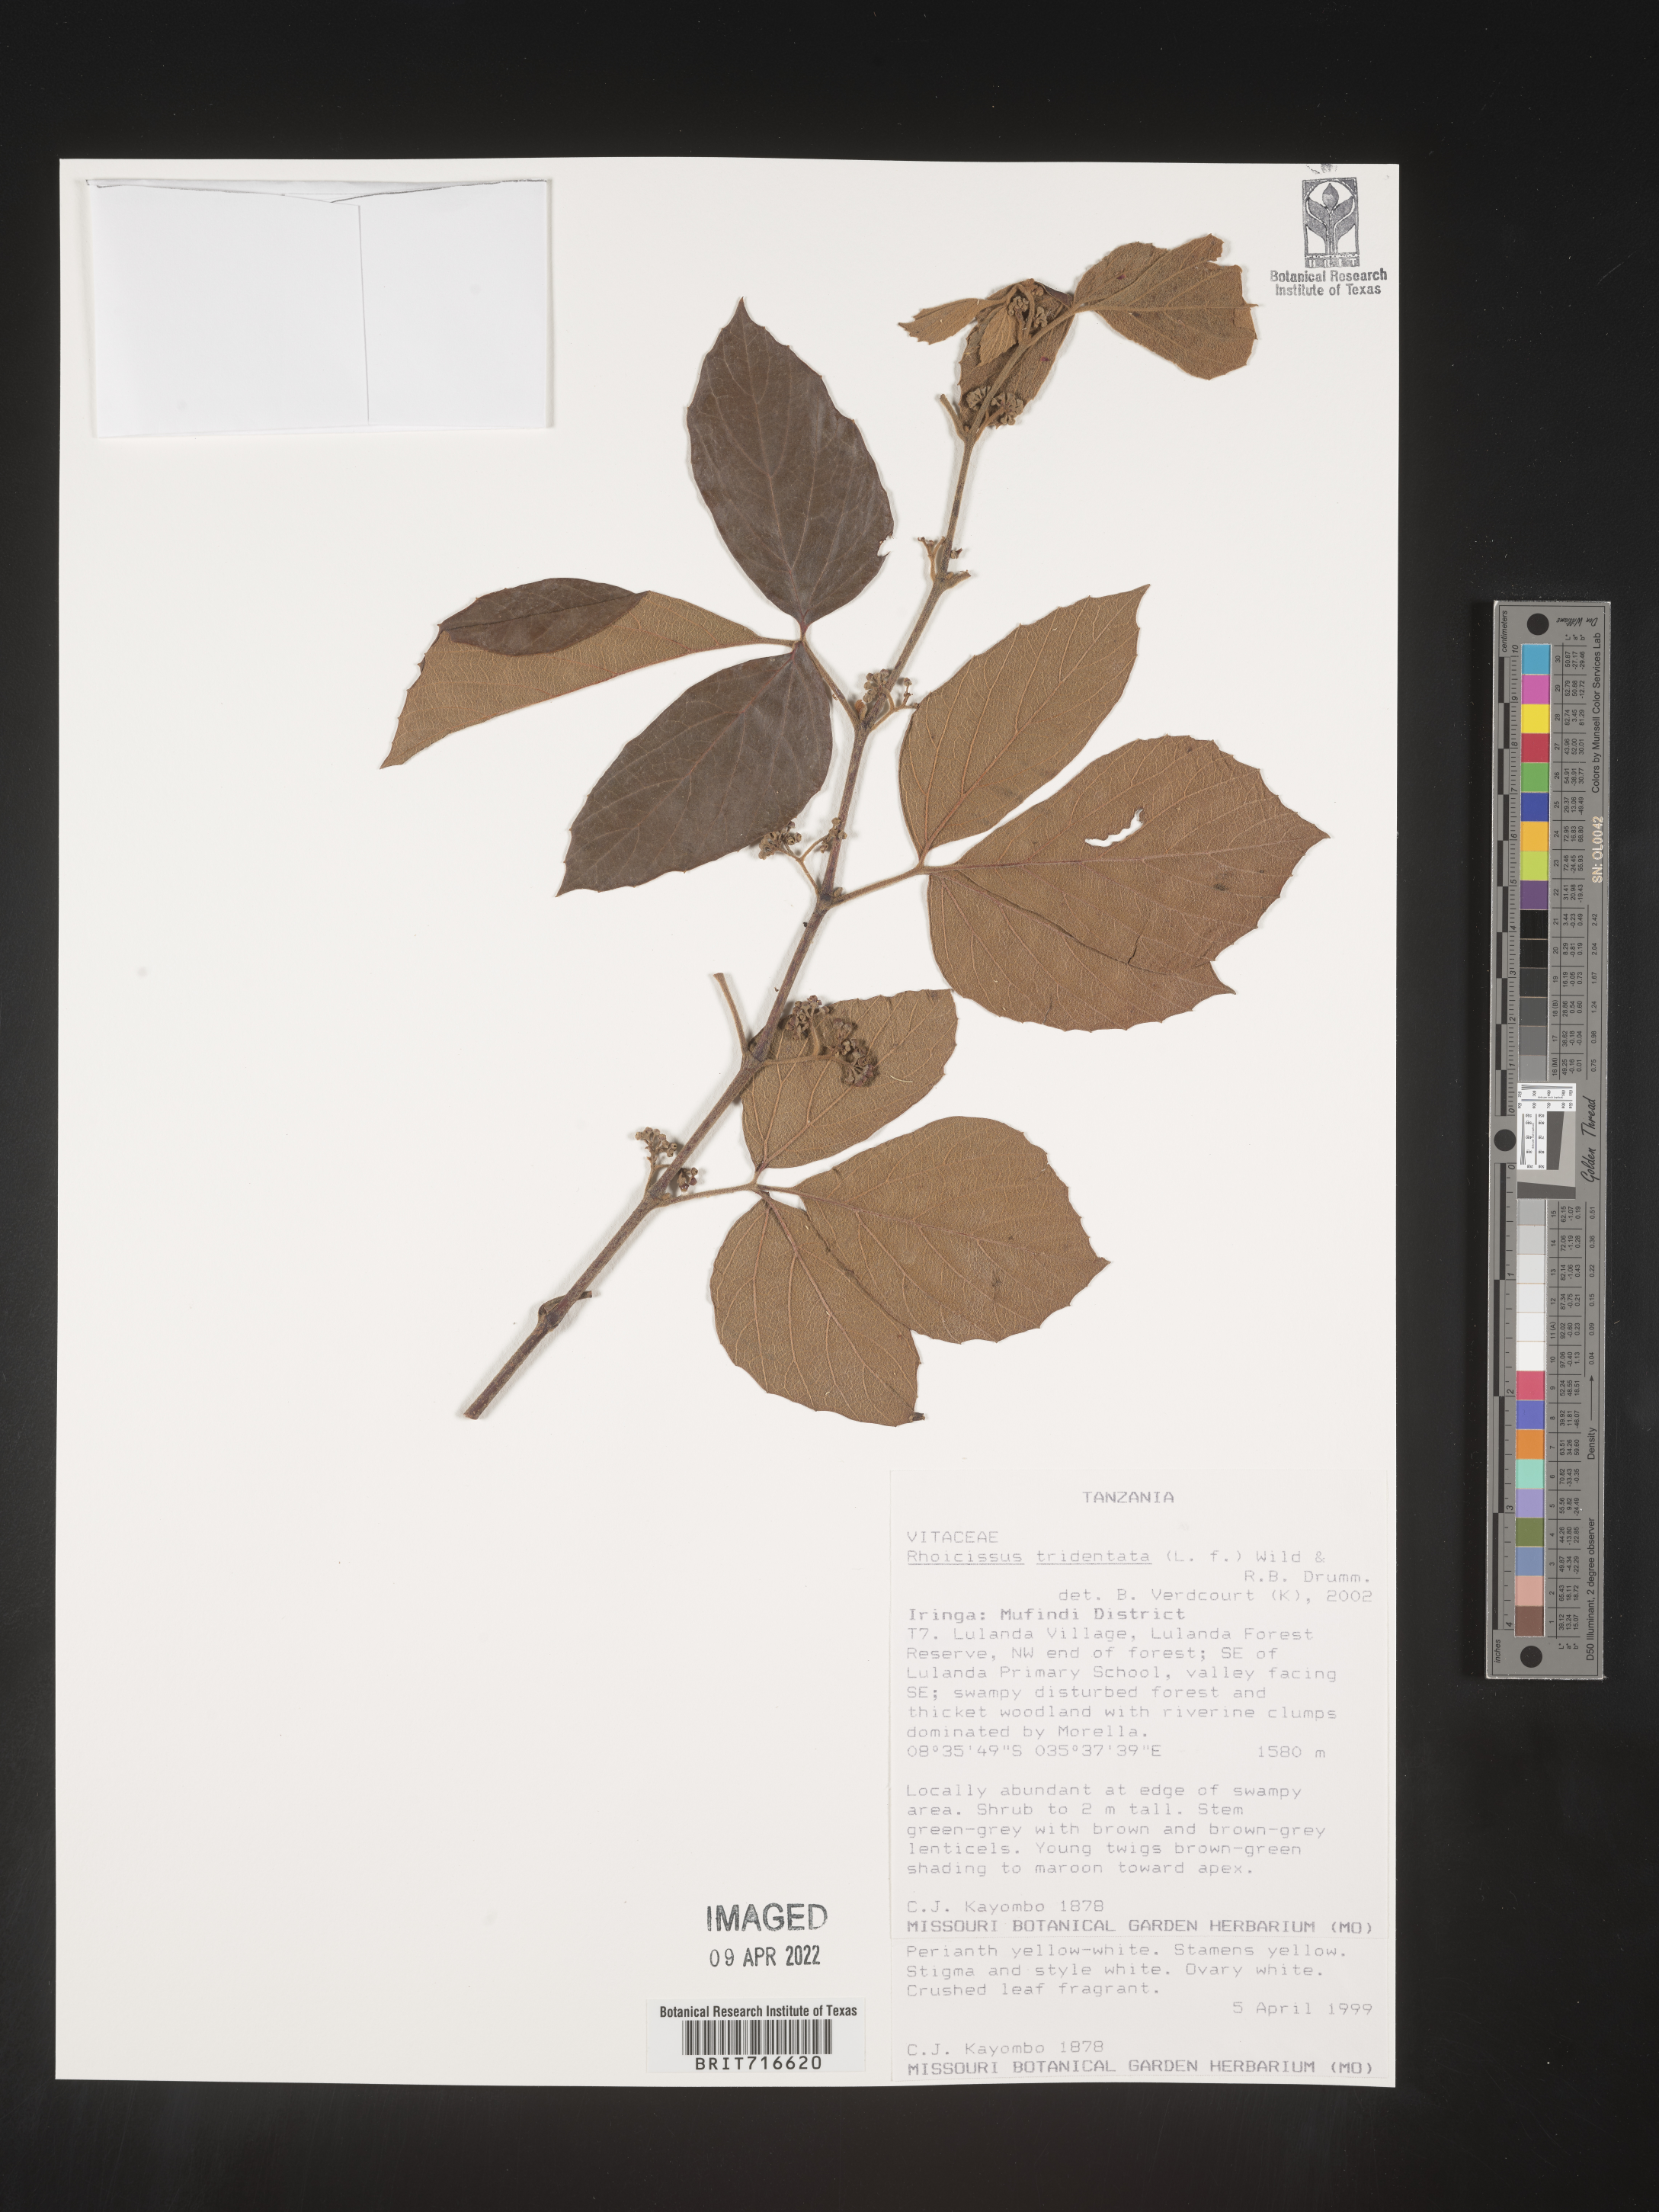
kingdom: Plantae
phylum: Tracheophyta
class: Magnoliopsida
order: Vitales
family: Vitaceae
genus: Rhoicissus
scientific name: Rhoicissus tridentata
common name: Common forest grape
